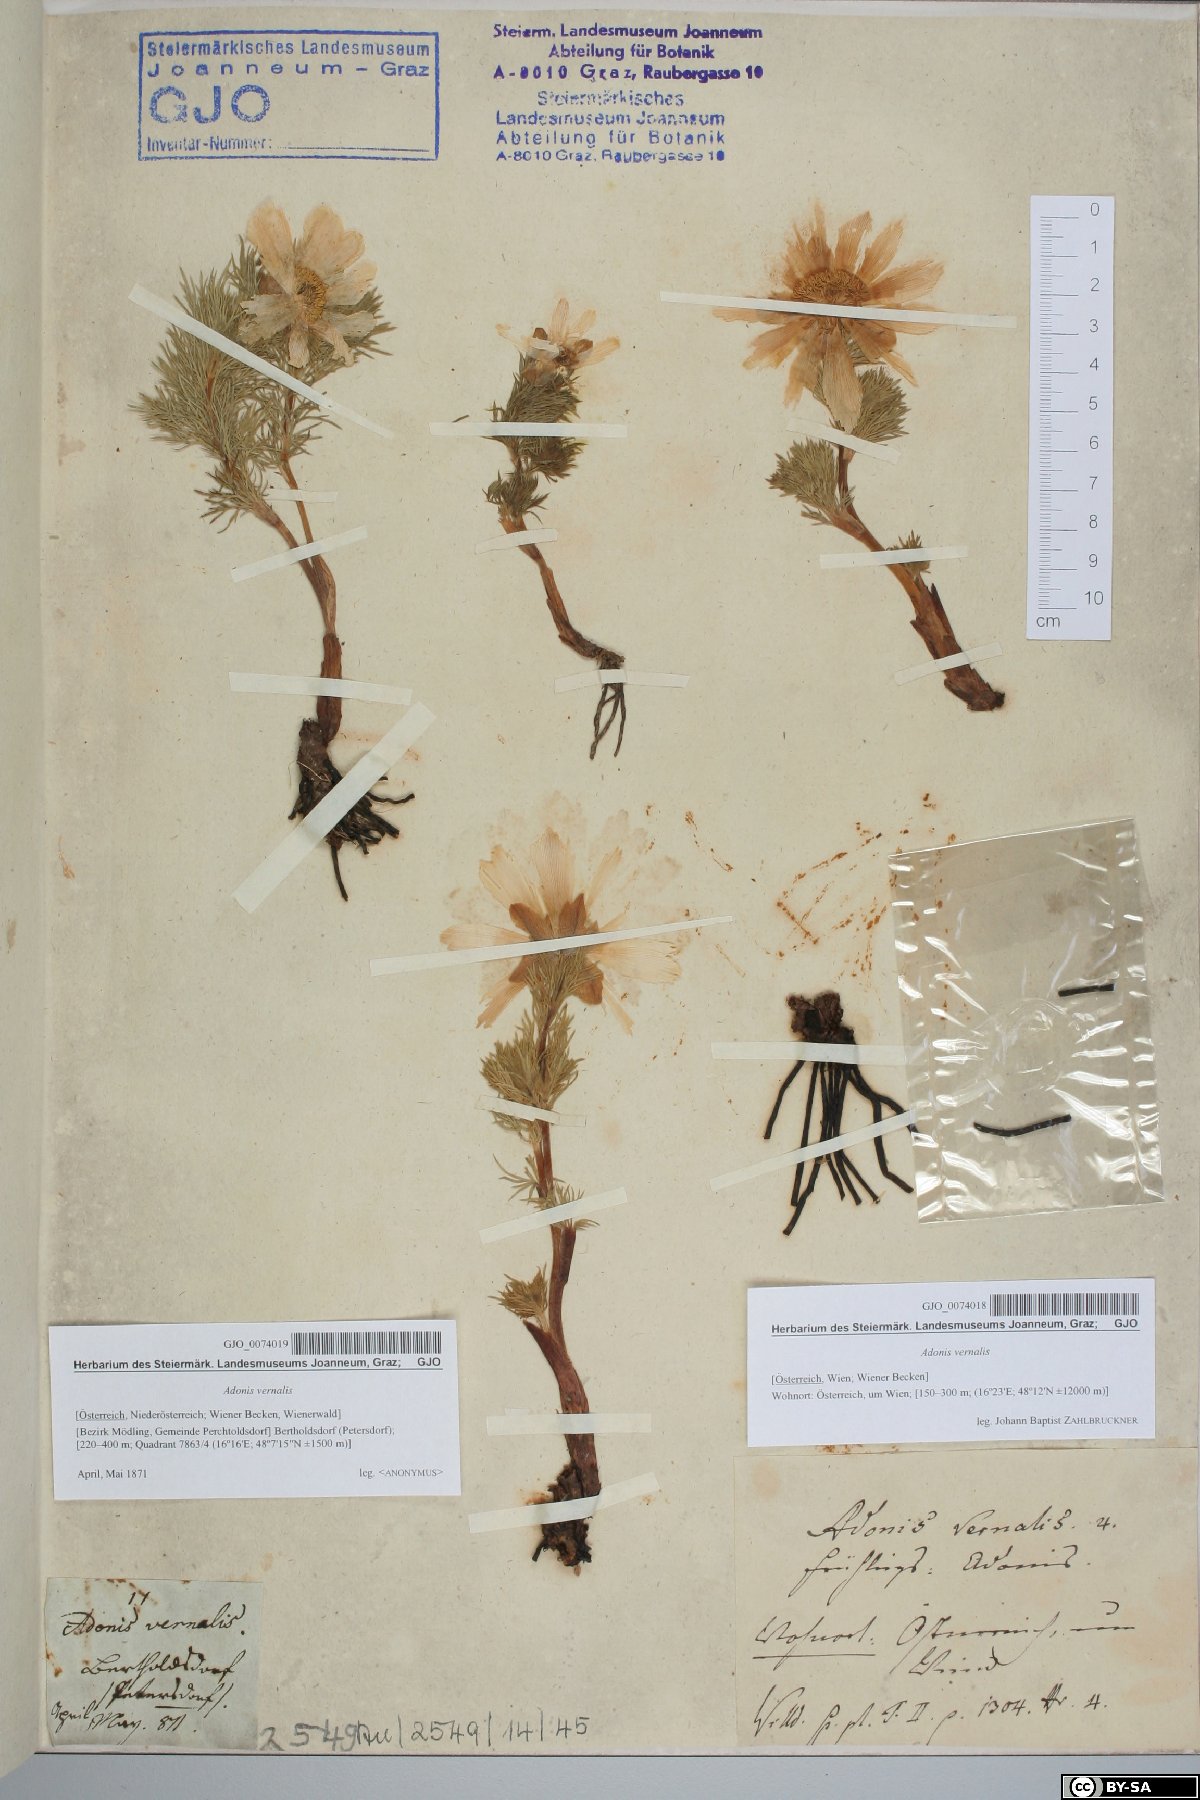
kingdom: Plantae
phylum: Tracheophyta
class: Magnoliopsida
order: Ranunculales
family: Ranunculaceae
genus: Adonis
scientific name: Adonis vernalis
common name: Yellow pheasants-eye
